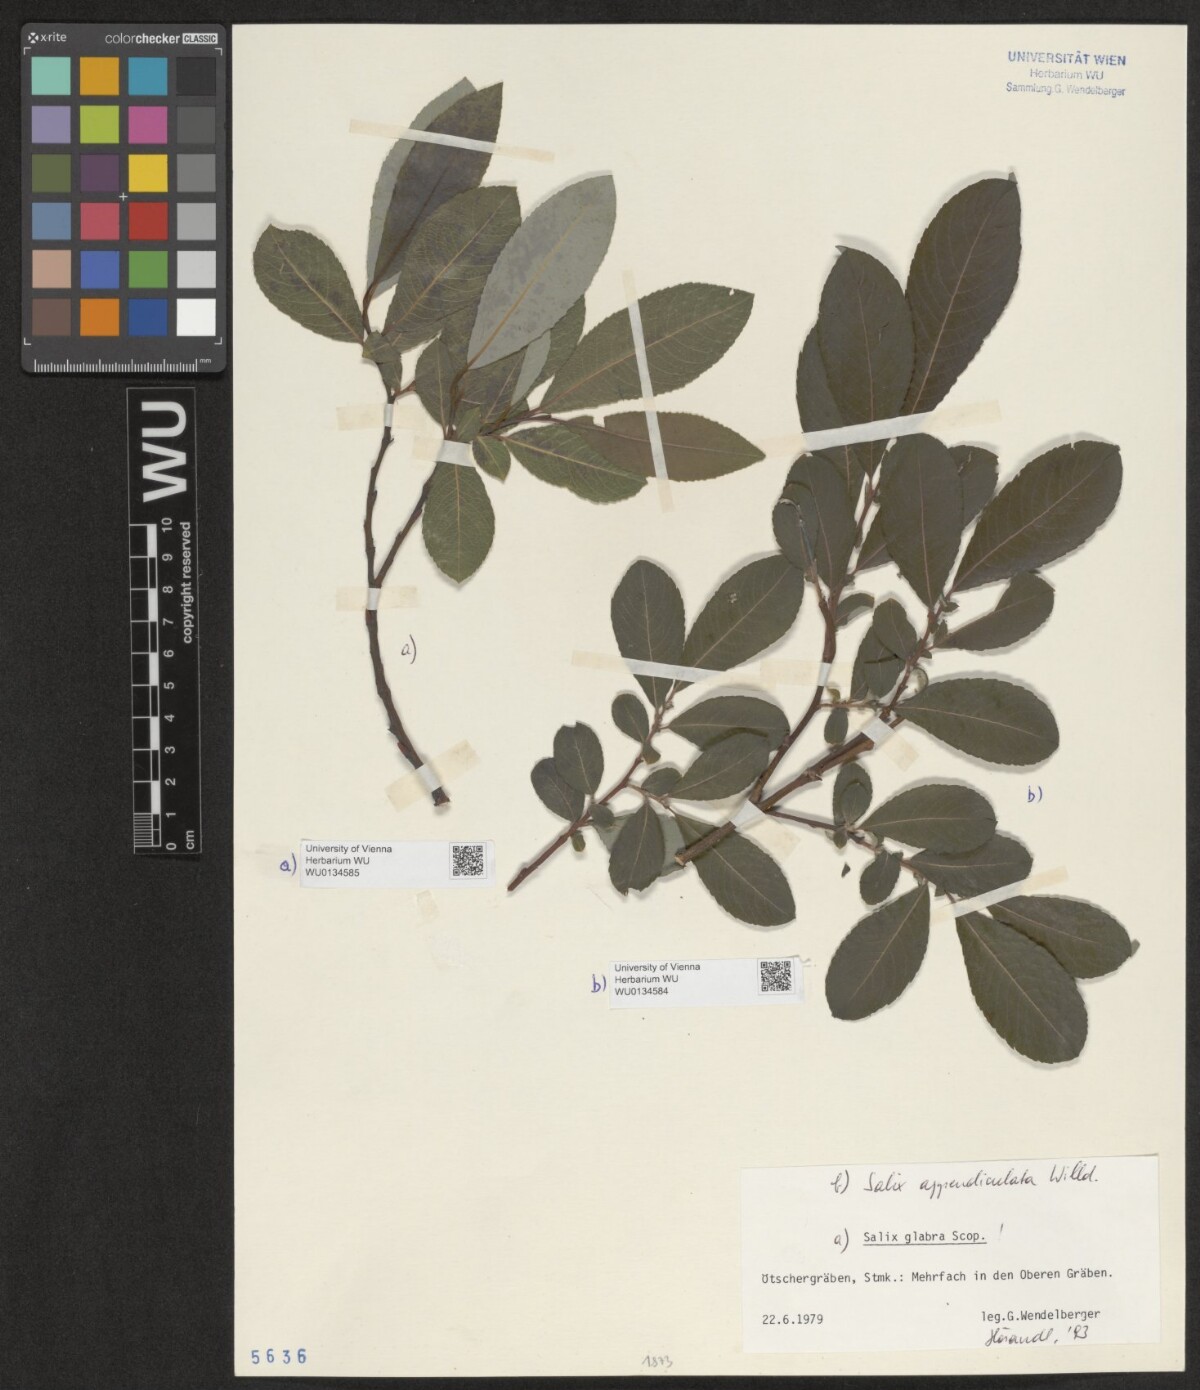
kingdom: Plantae
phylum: Tracheophyta
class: Magnoliopsida
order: Malpighiales
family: Salicaceae
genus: Salix
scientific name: Salix appendiculata
